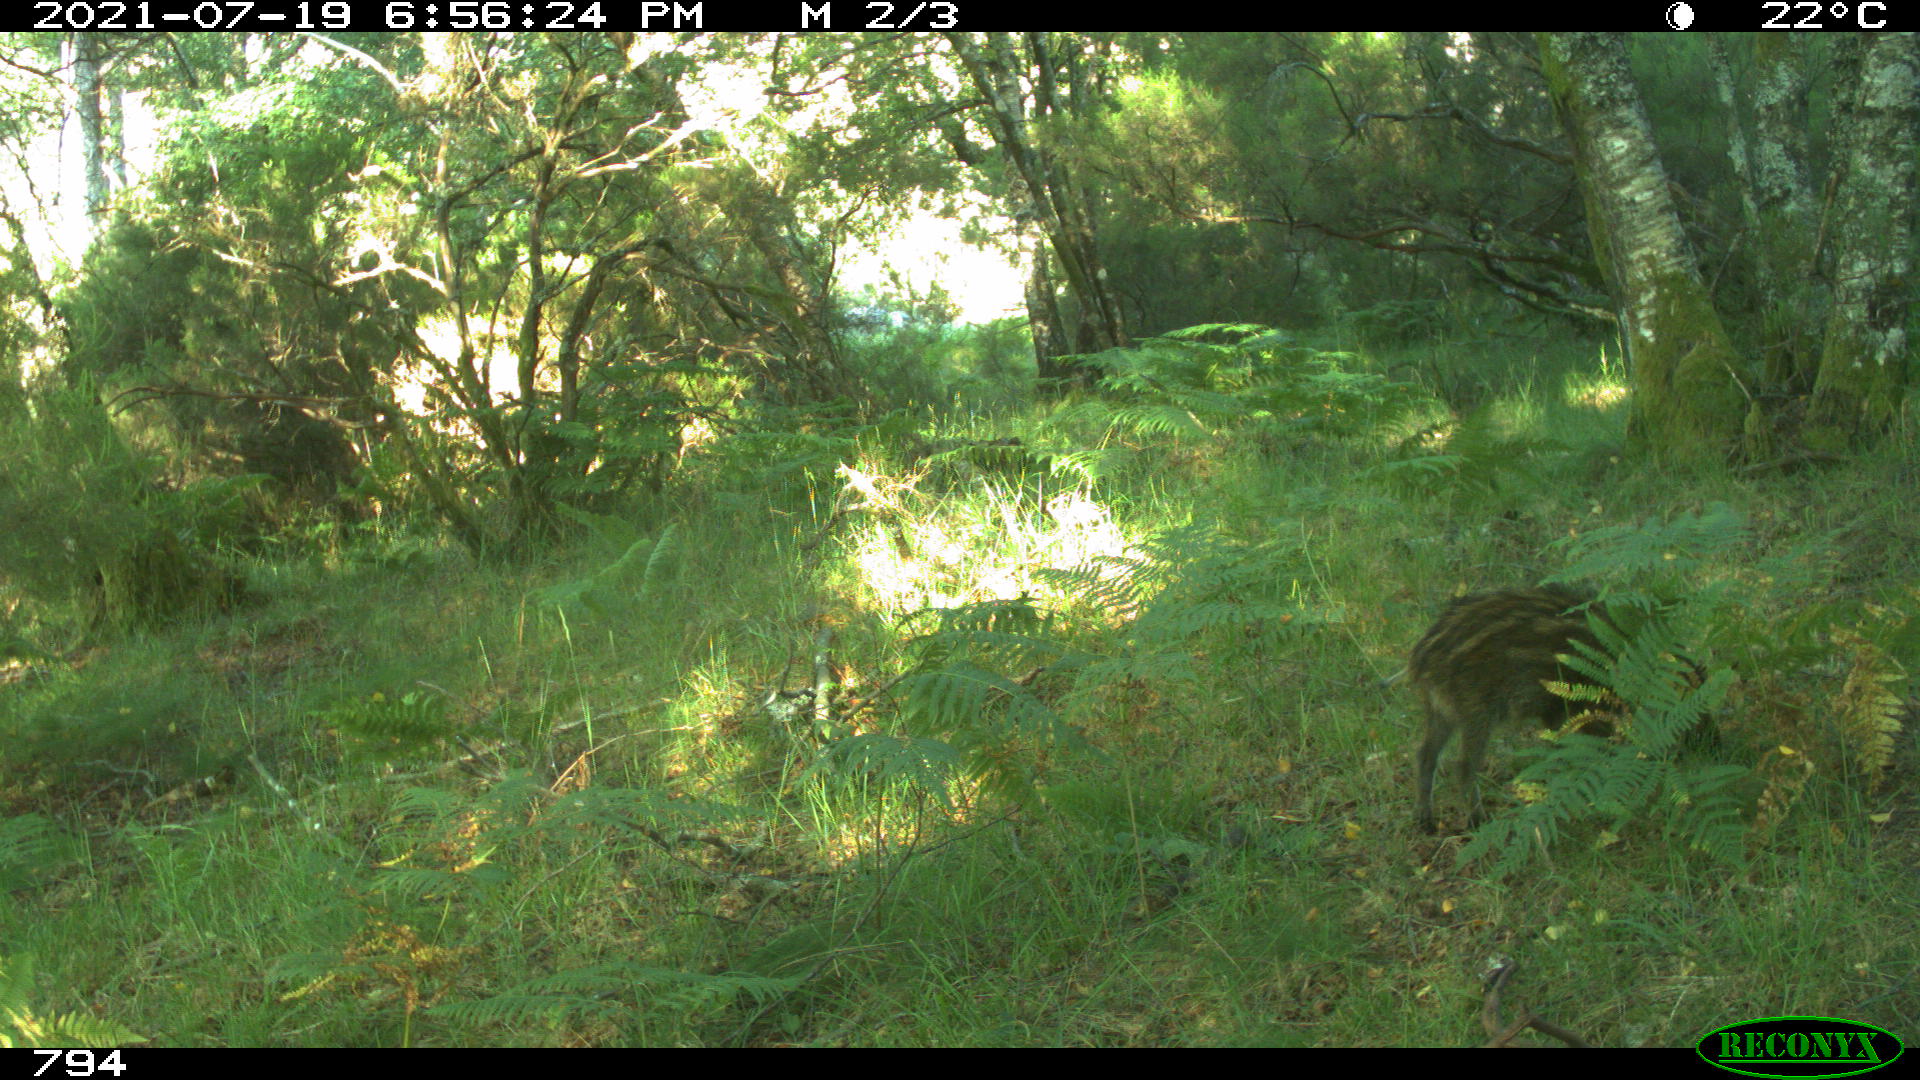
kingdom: Animalia
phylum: Chordata
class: Mammalia
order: Artiodactyla
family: Suidae
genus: Sus
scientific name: Sus scrofa
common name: Wild boar
